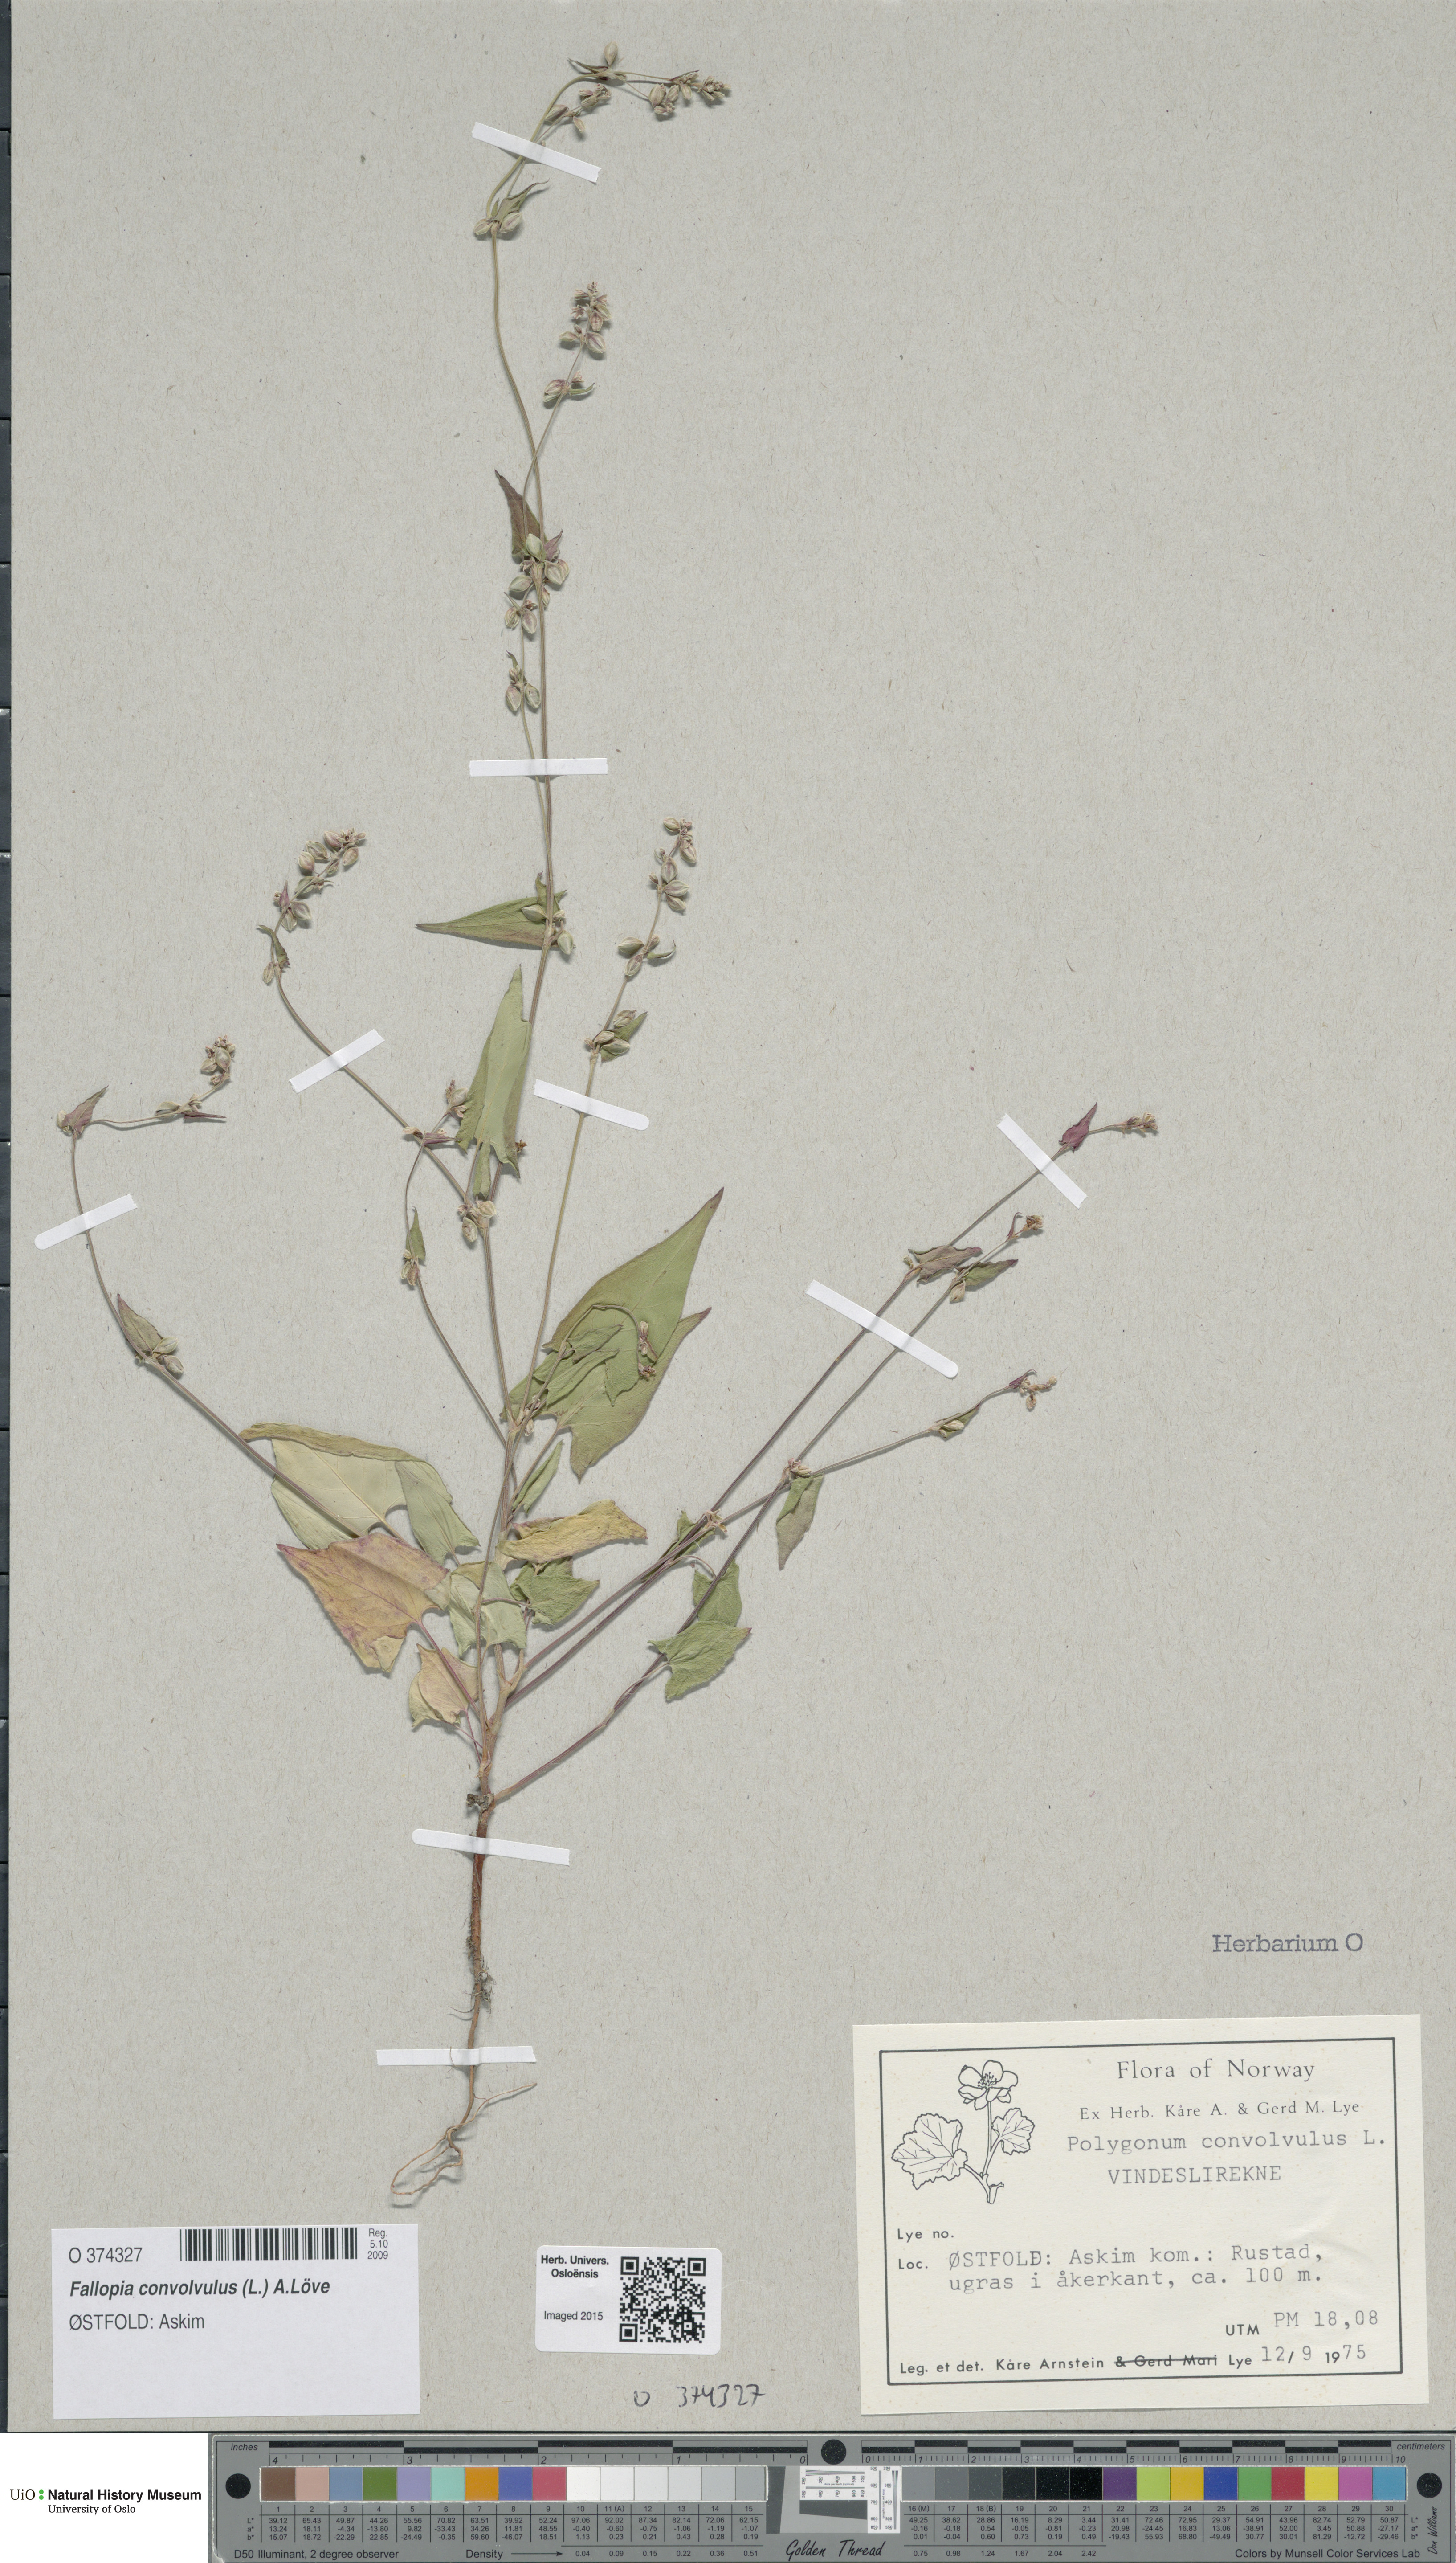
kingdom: Plantae
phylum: Tracheophyta
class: Magnoliopsida
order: Caryophyllales
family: Polygonaceae
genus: Fallopia
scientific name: Fallopia convolvulus
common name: Black bindweed
